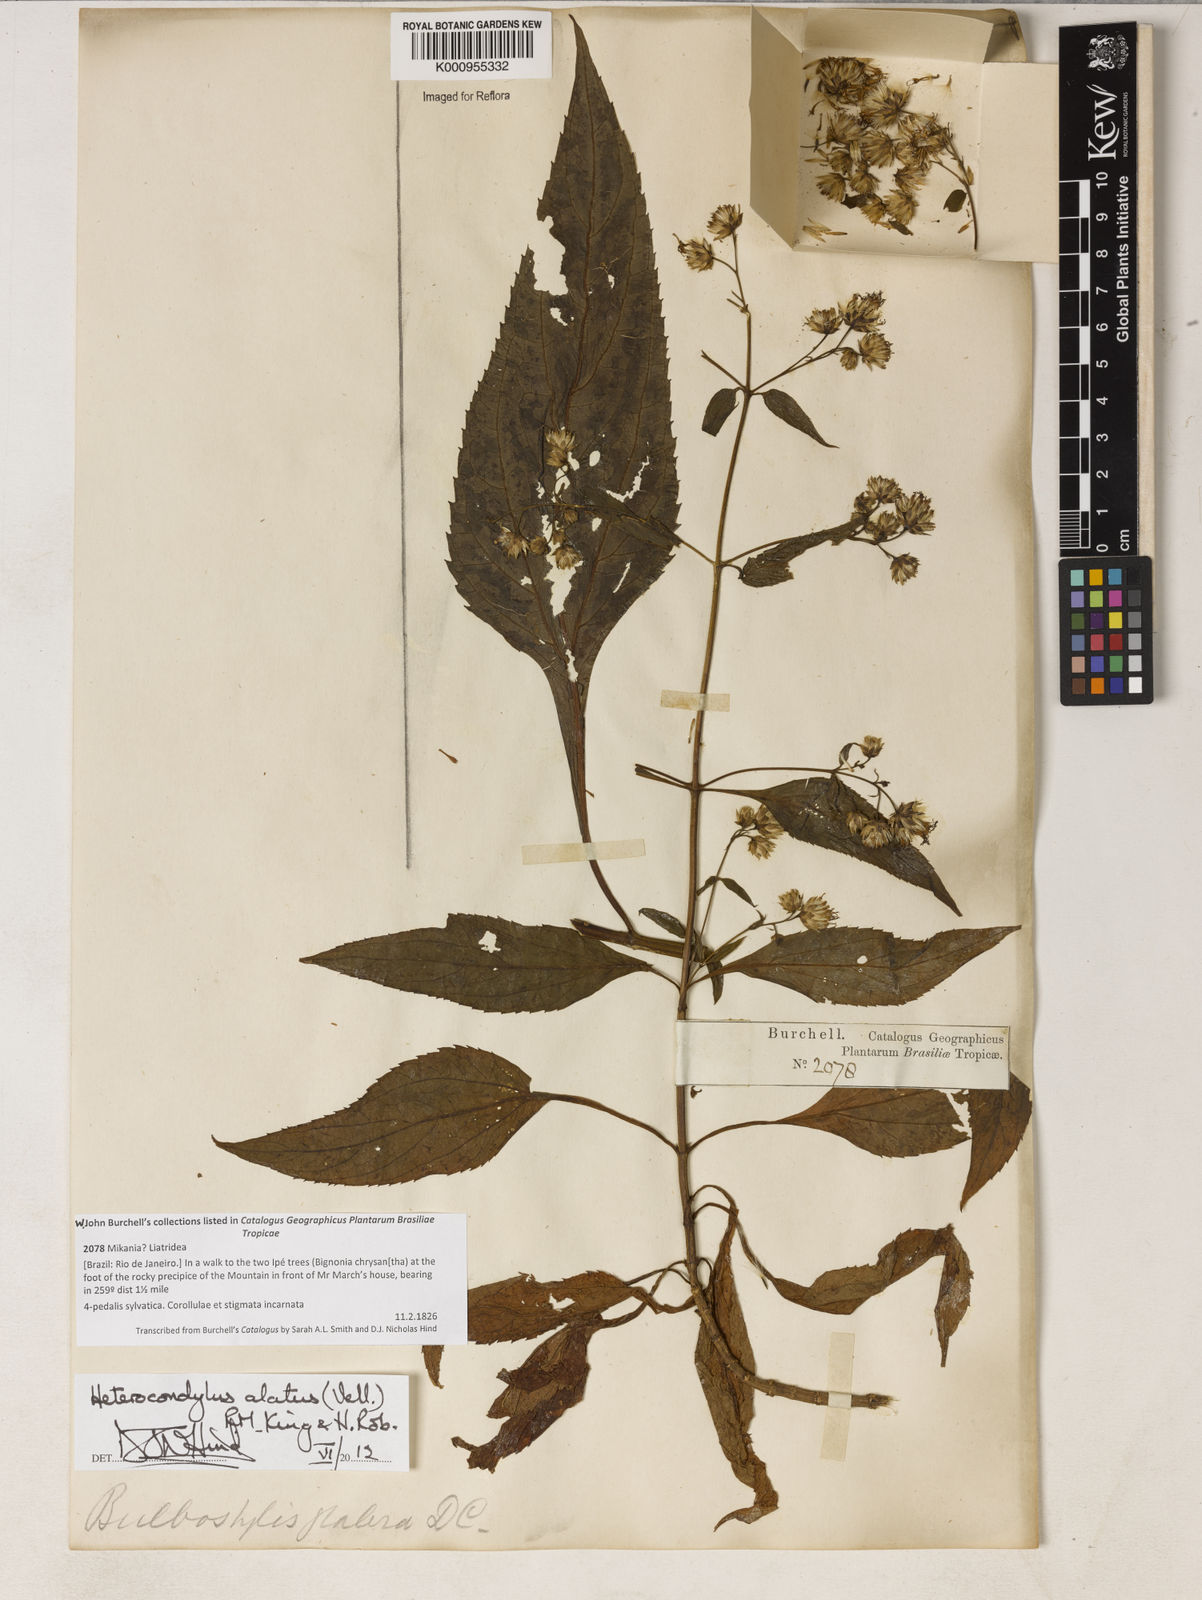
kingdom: Plantae
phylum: Tracheophyta
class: Magnoliopsida
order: Asterales
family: Asteraceae
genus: Heterocondylus
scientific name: Heterocondylus alatus
